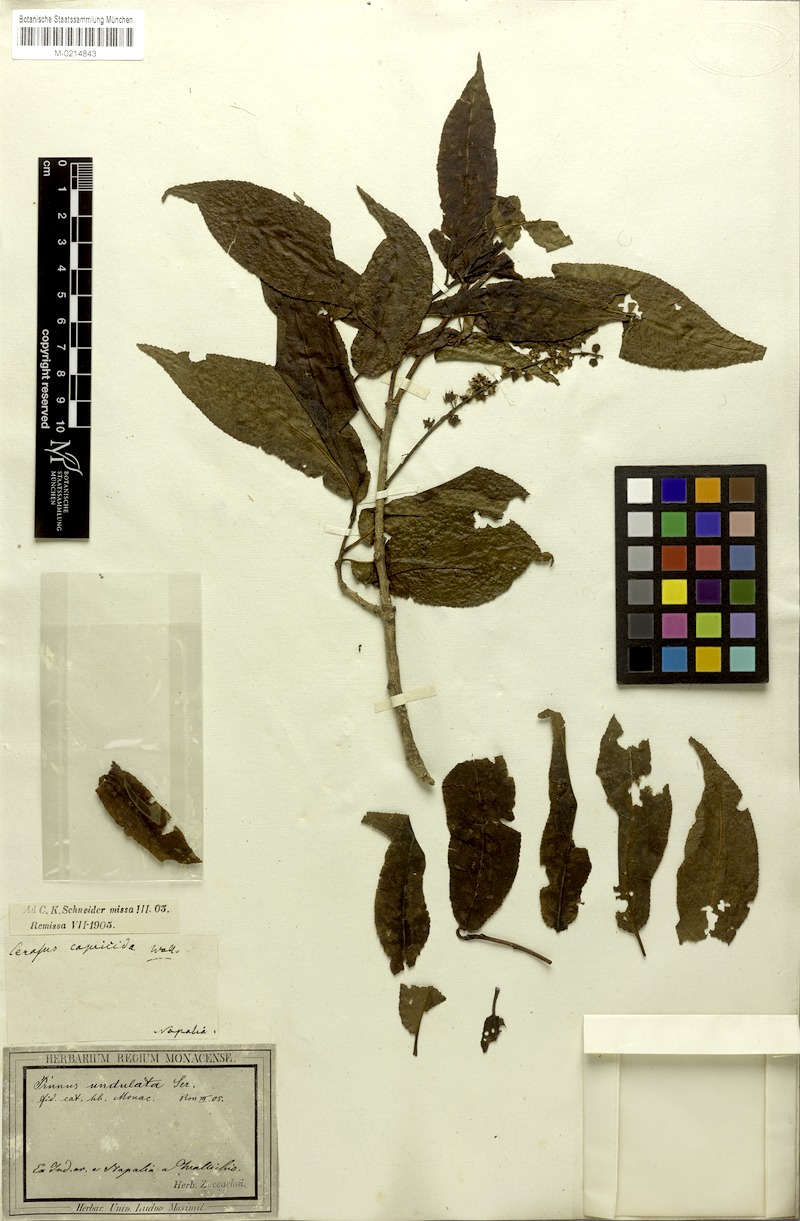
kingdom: Plantae
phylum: Tracheophyta
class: Magnoliopsida
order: Rosales
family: Rosaceae
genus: Prunus
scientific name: Prunus buergeriana
